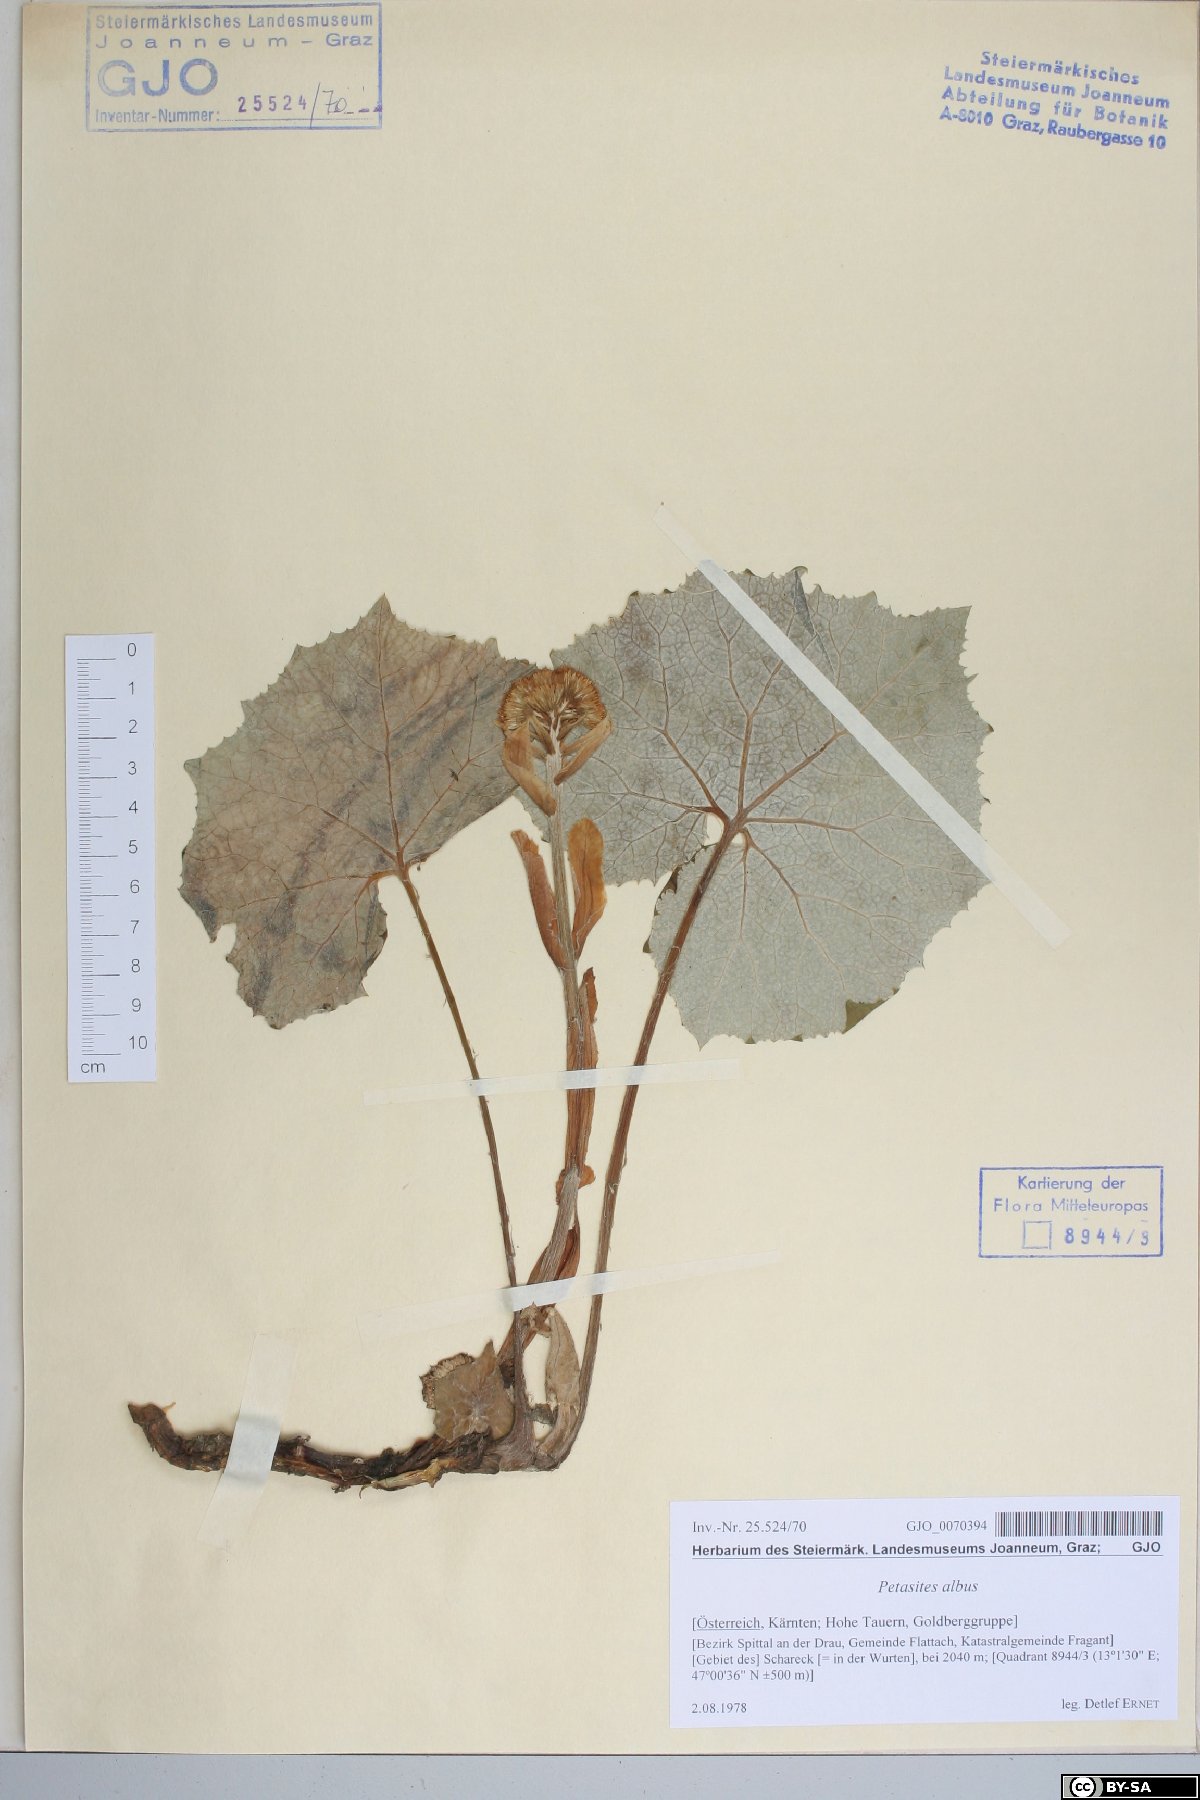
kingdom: Plantae
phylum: Tracheophyta
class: Magnoliopsida
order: Asterales
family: Asteraceae
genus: Petasites
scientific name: Petasites albus
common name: White butterbur
